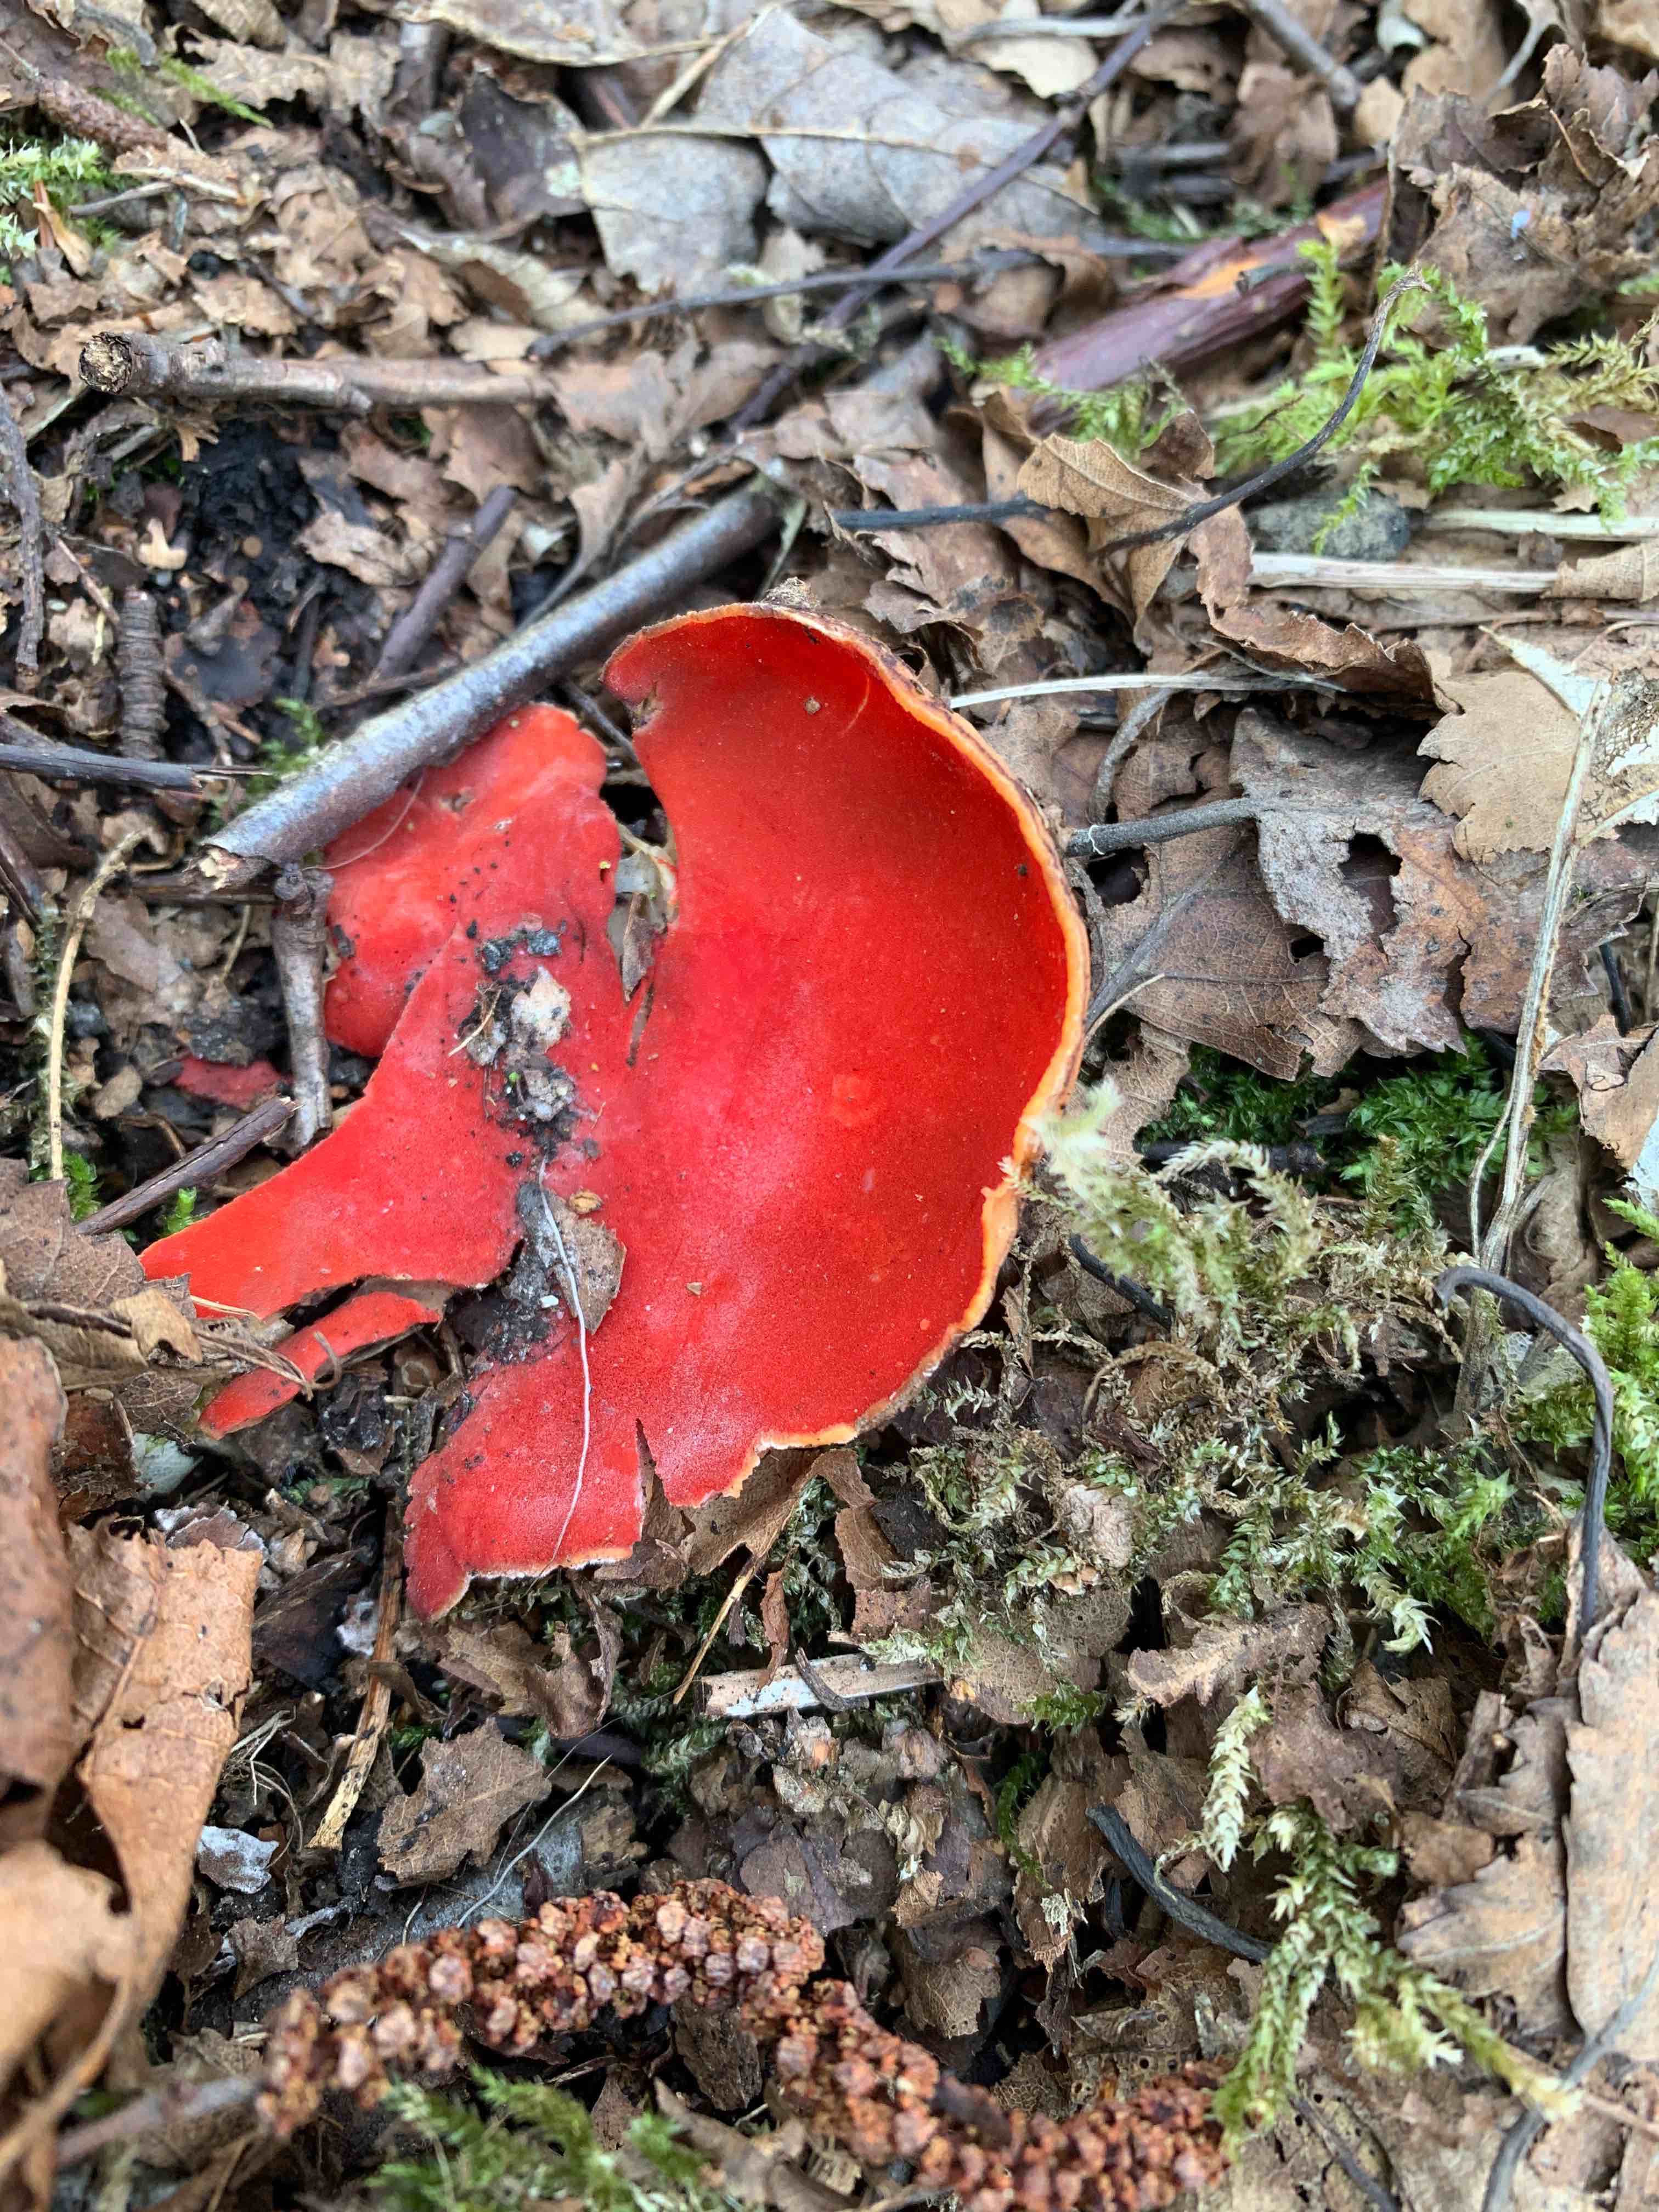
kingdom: Fungi
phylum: Ascomycota
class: Pezizomycetes
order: Pezizales
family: Sarcoscyphaceae
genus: Sarcoscypha
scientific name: Sarcoscypha
